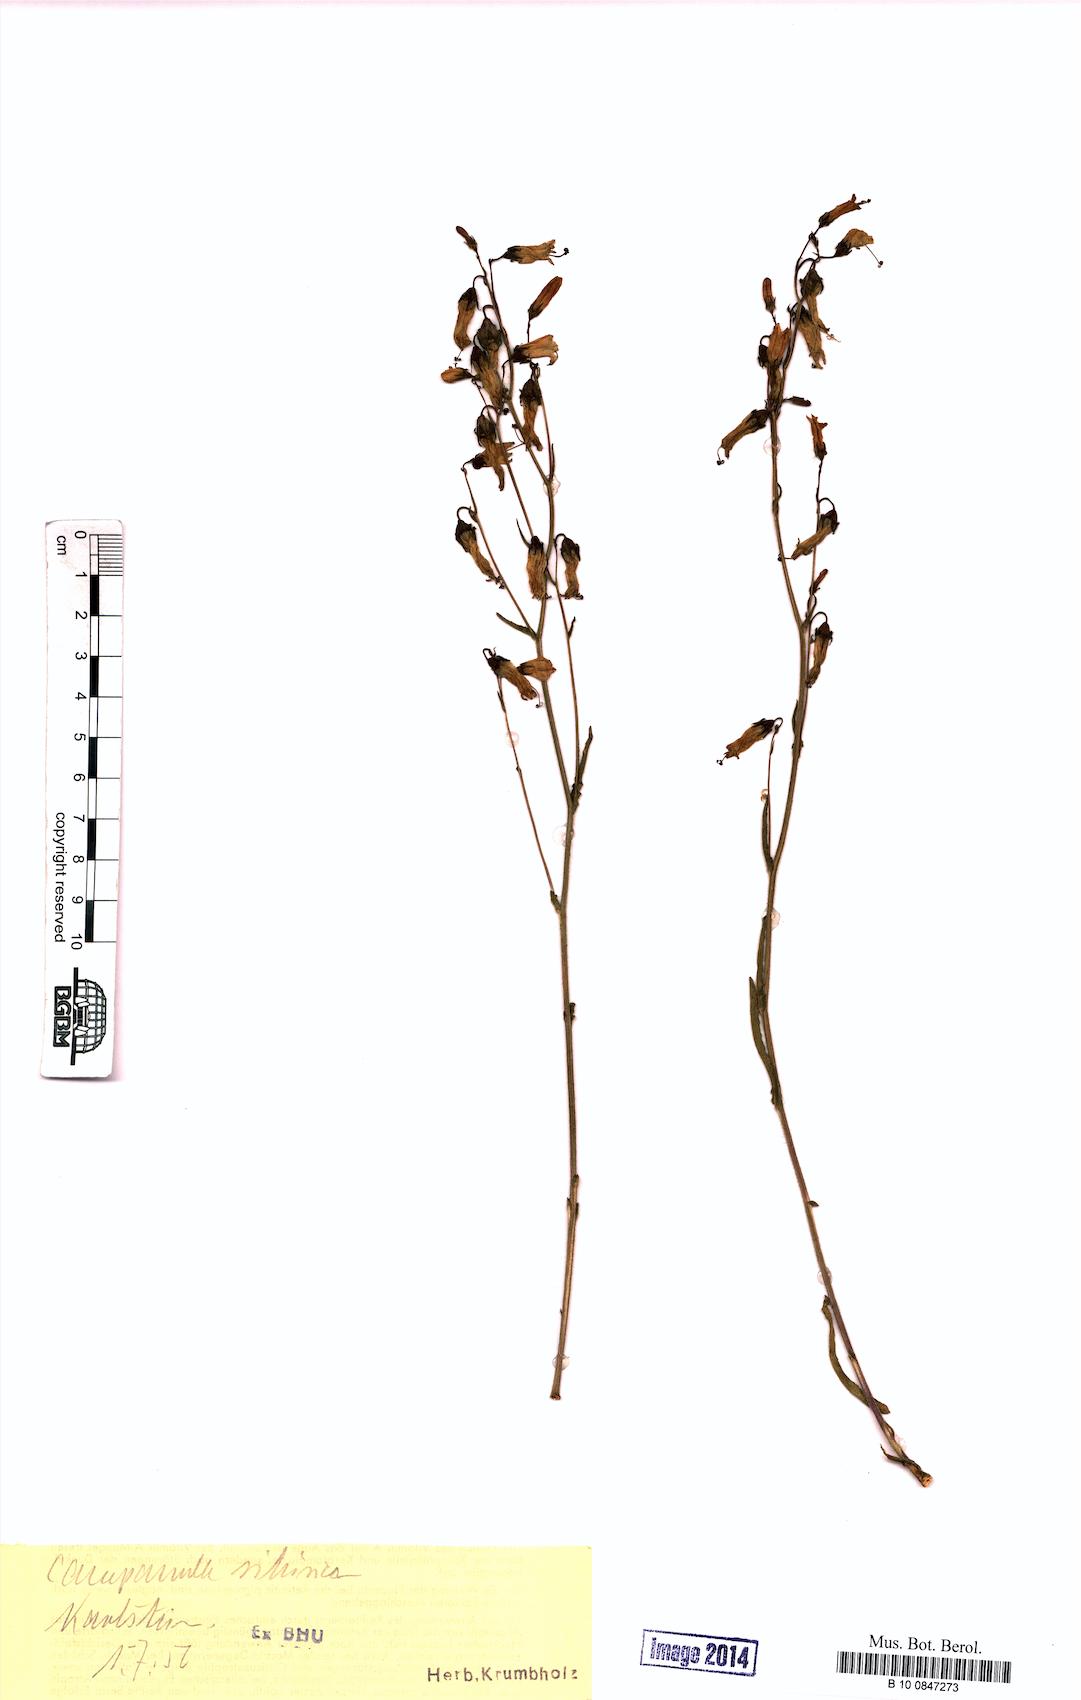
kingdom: Plantae
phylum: Tracheophyta
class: Magnoliopsida
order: Asterales
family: Campanulaceae
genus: Campanula
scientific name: Campanula sibirica
